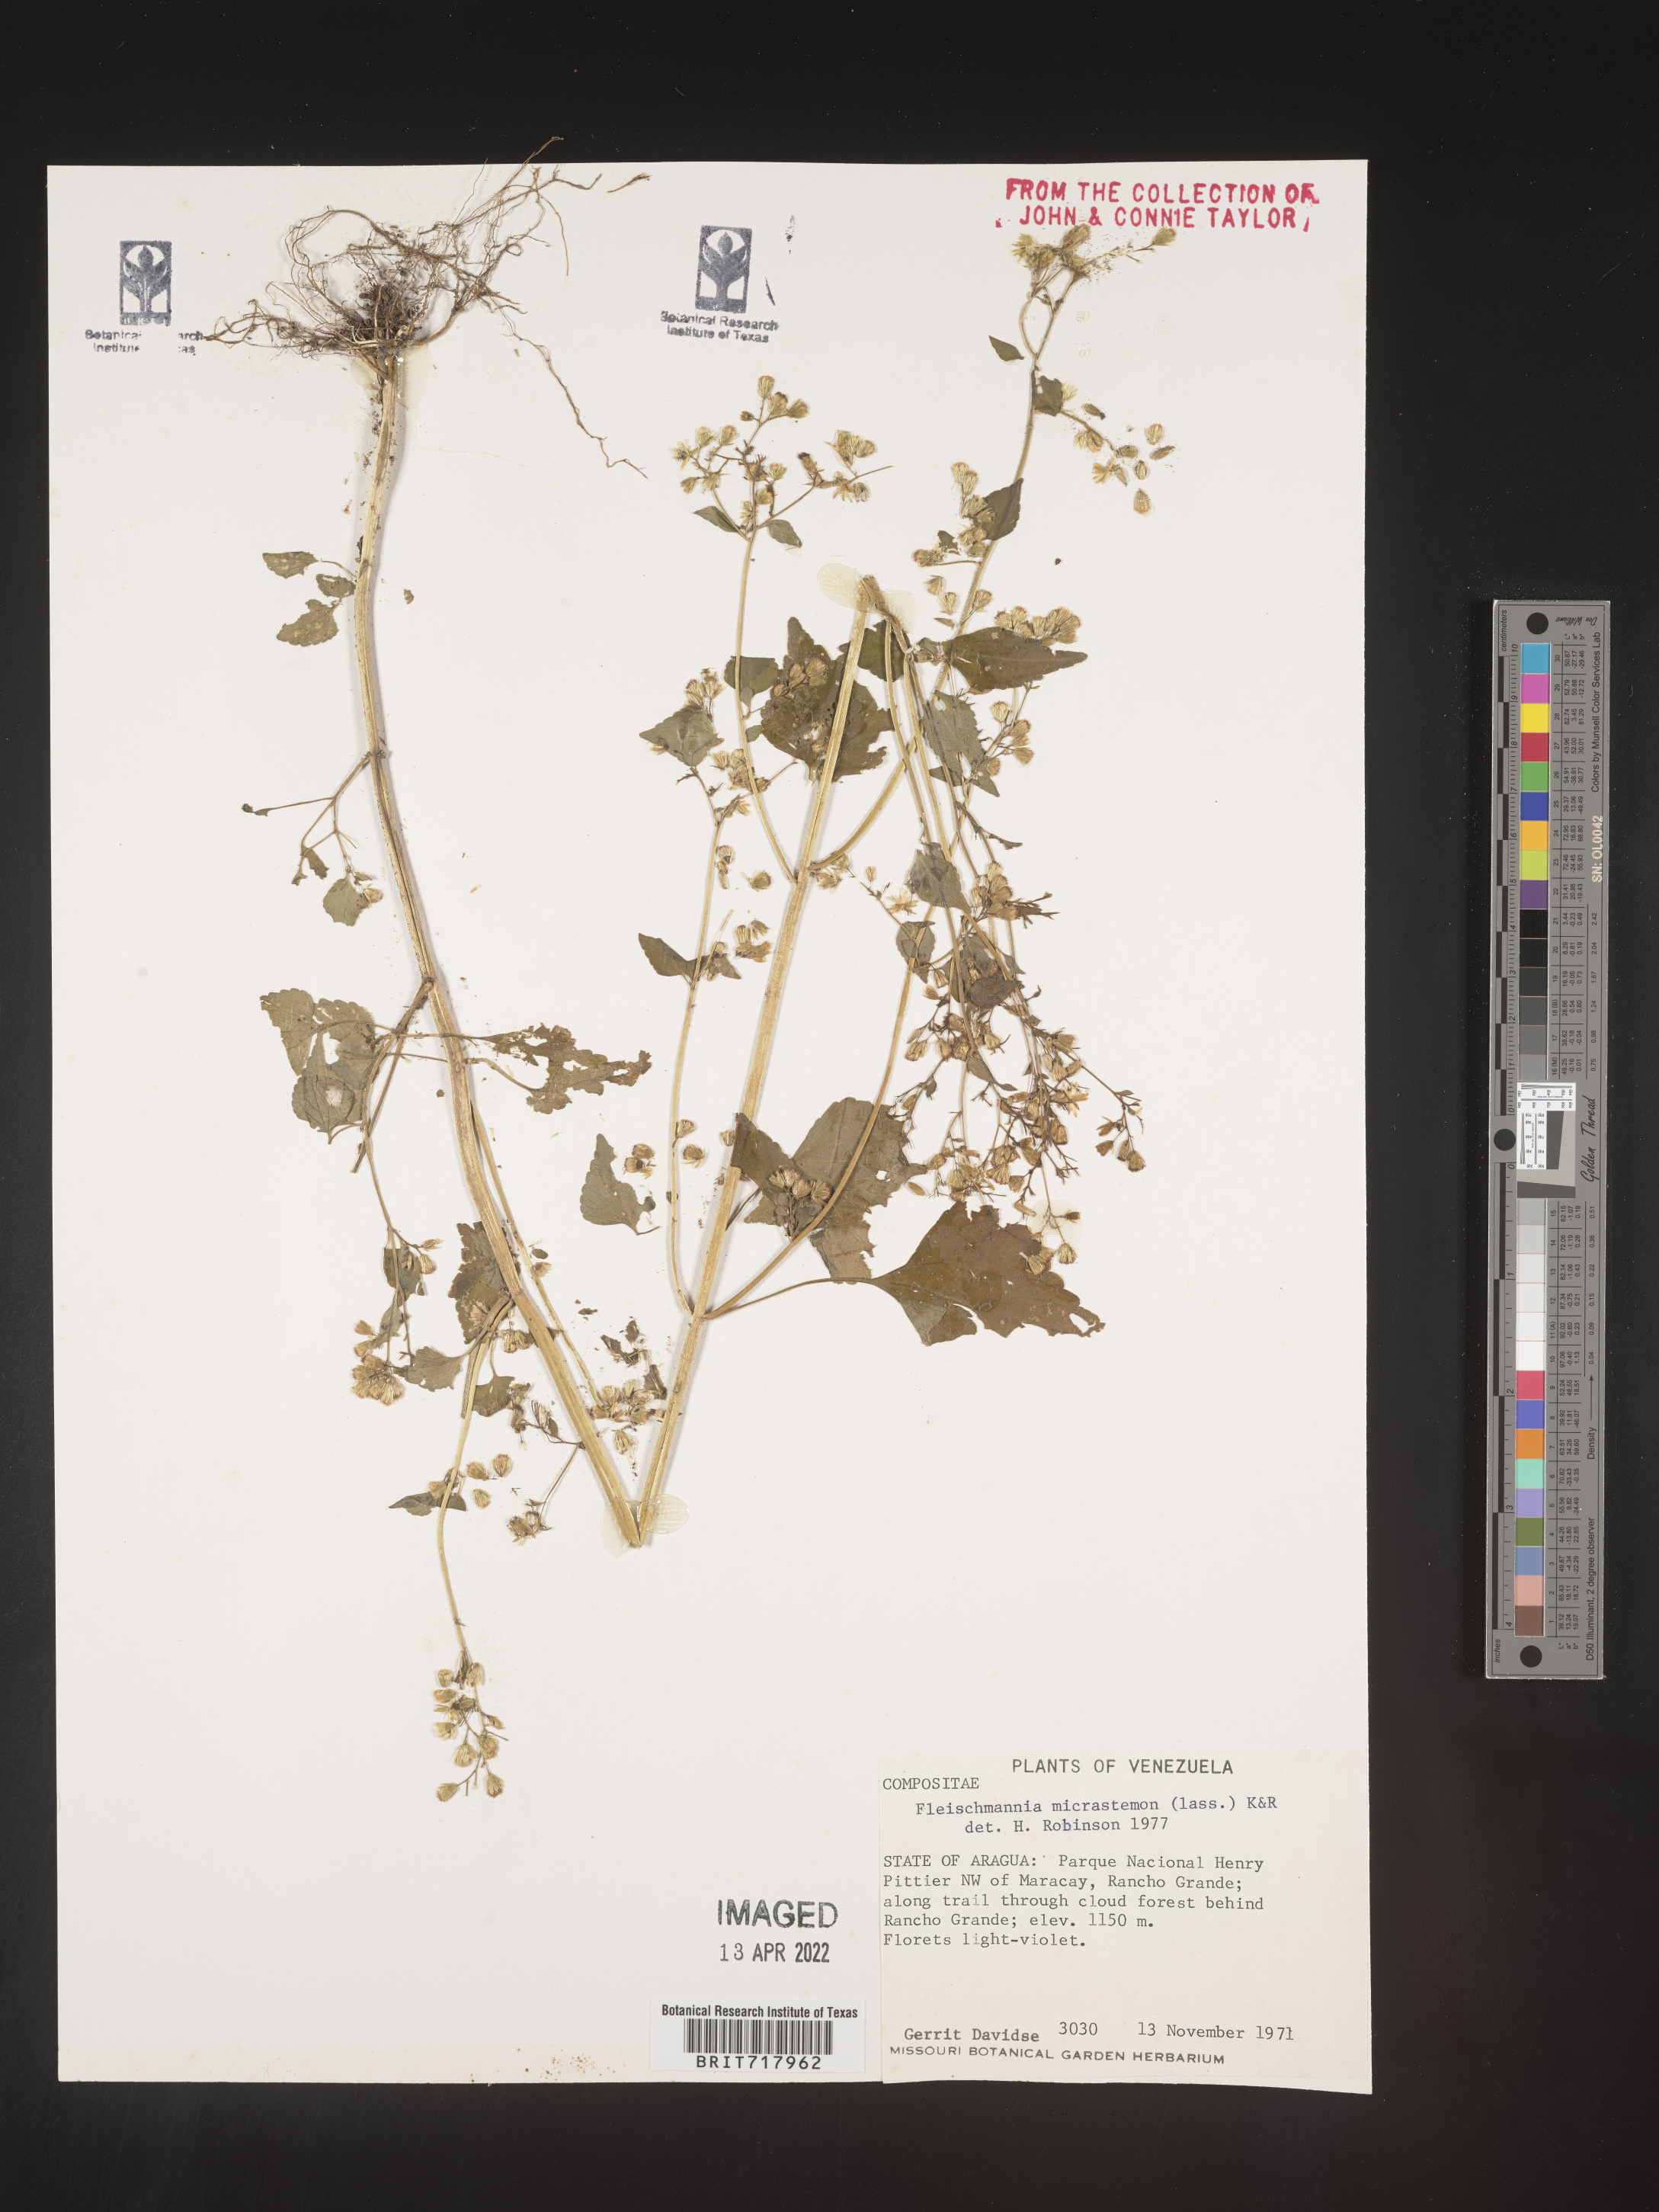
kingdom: Plantae
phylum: Tracheophyta
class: Magnoliopsida
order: Asterales
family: Asteraceae
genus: Fleischmannia
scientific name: Fleischmannia
